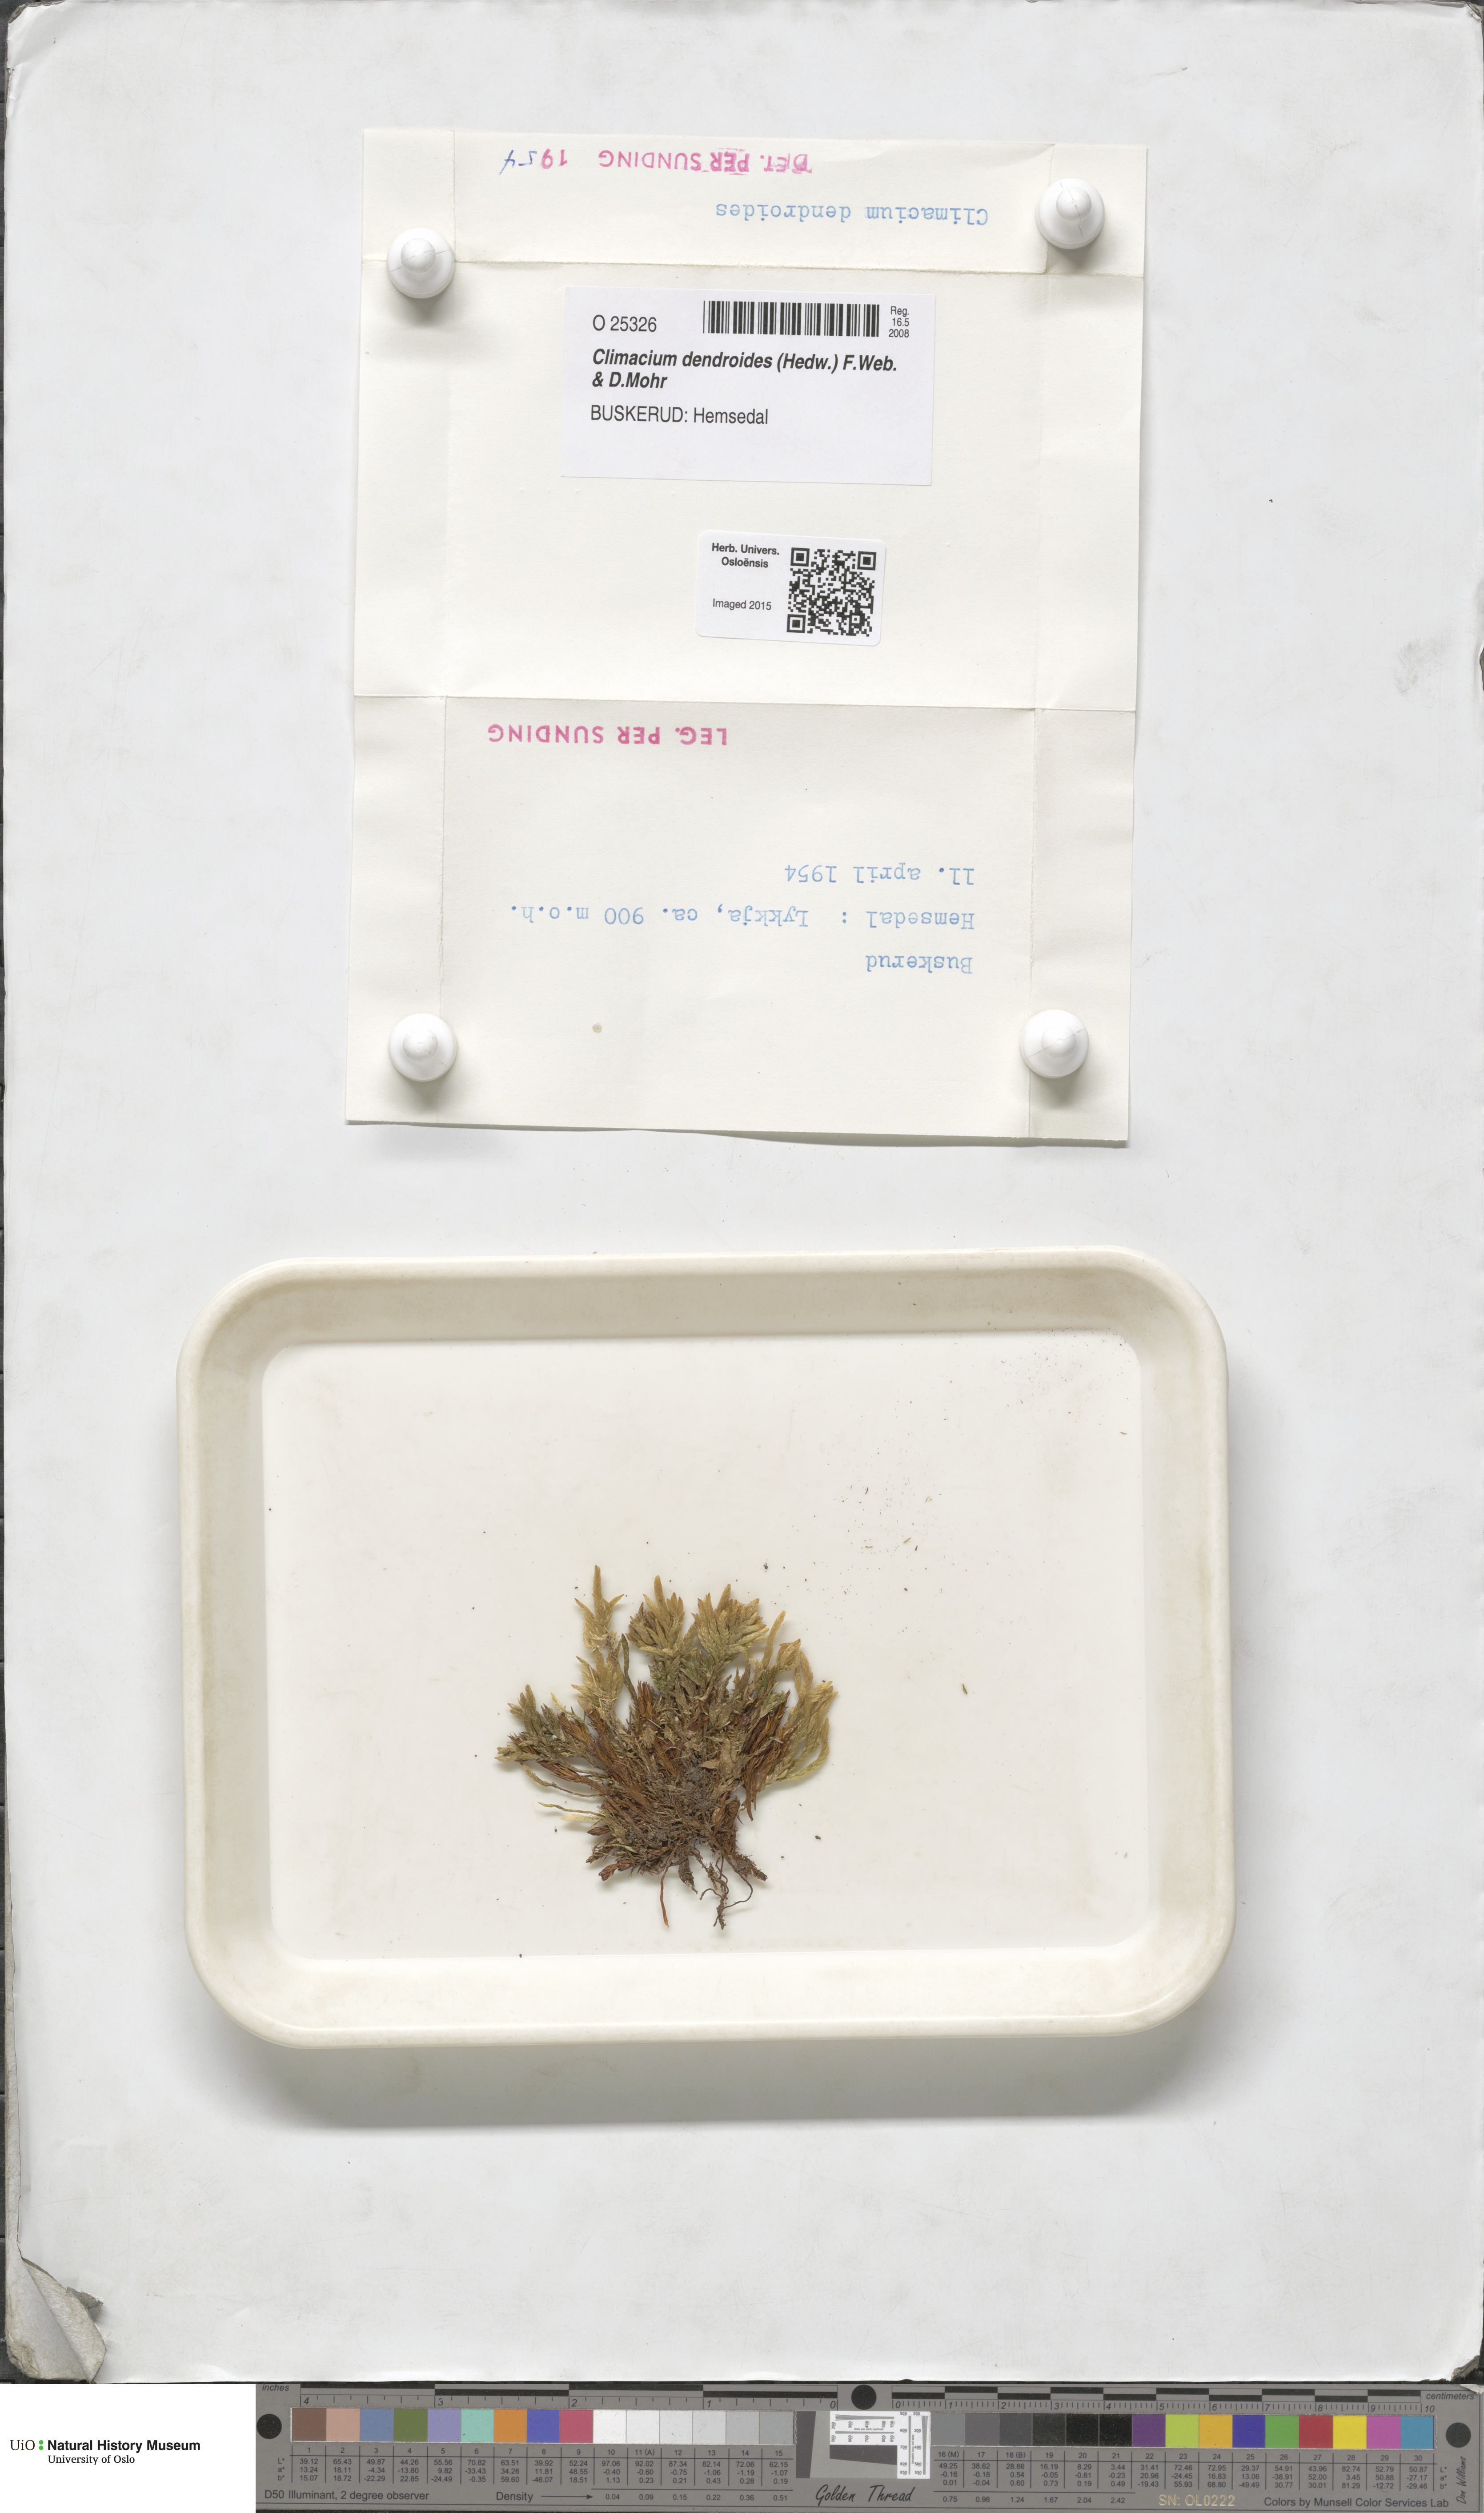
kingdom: Plantae
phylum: Bryophyta
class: Bryopsida
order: Hypnales
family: Climaciaceae
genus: Climacium
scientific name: Climacium dendroides
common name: Northern tree moss
